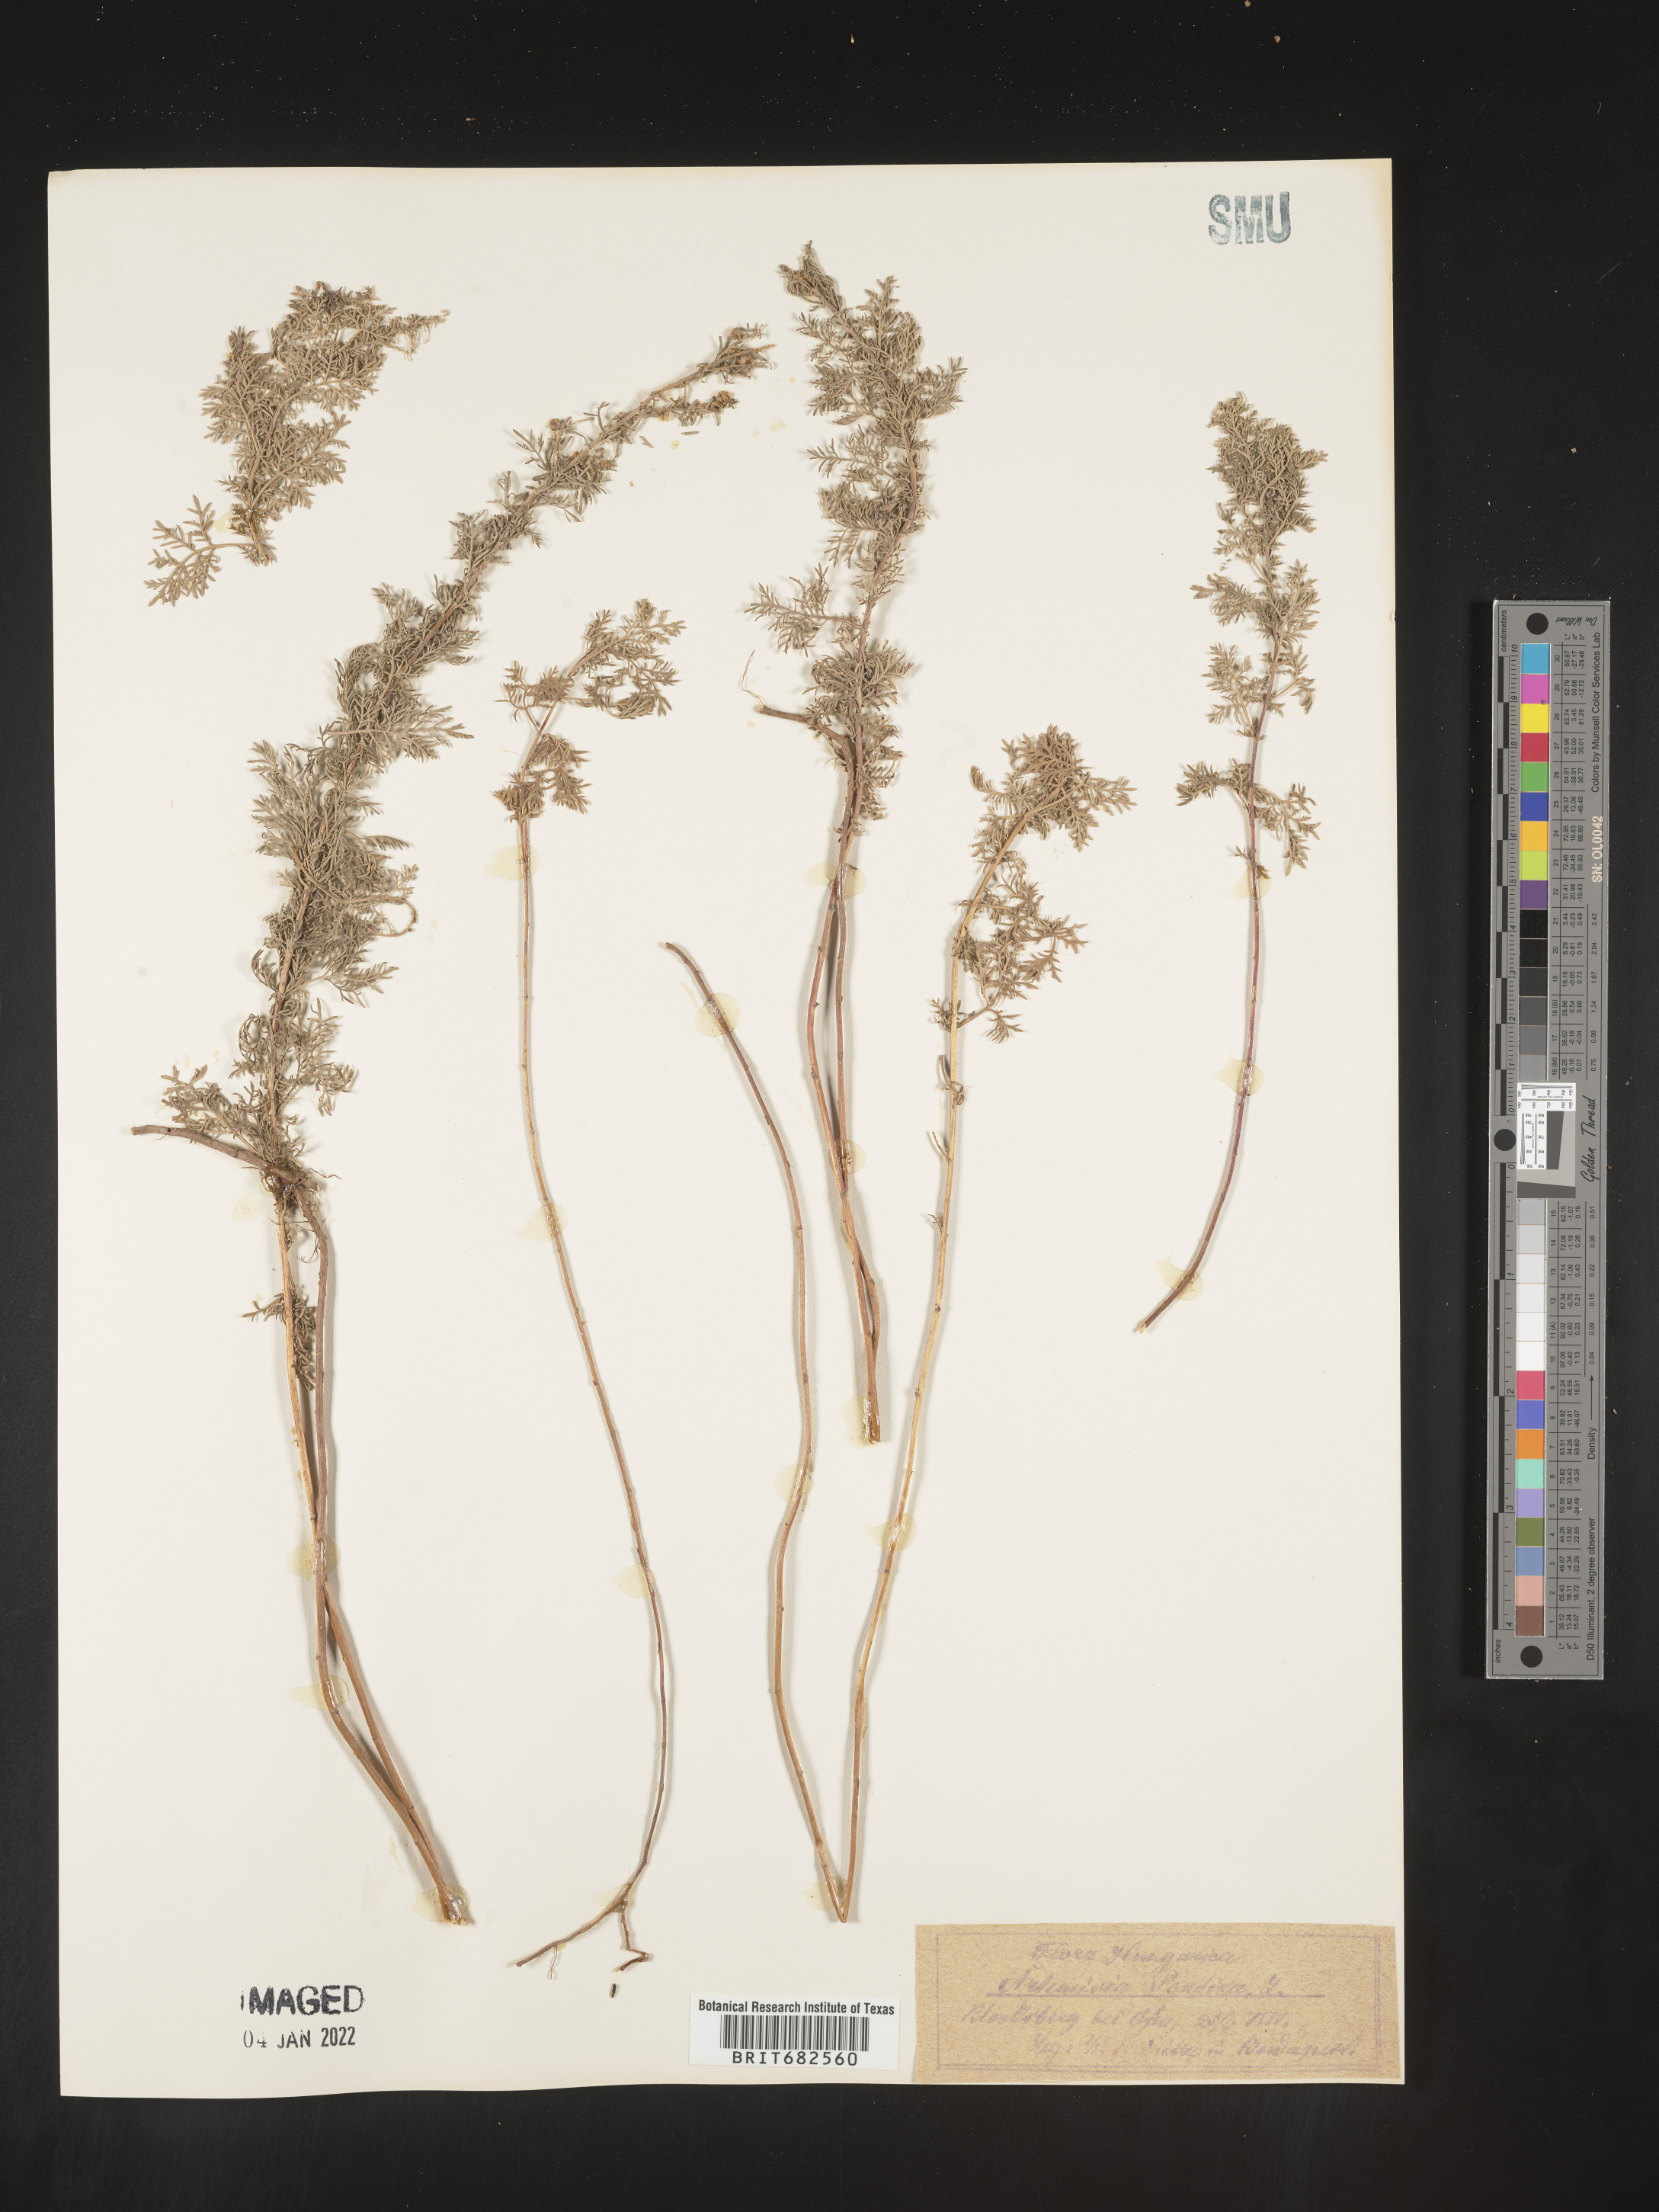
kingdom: Plantae
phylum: Tracheophyta
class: Magnoliopsida
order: Asterales
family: Asteraceae
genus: Artemisia
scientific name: Artemisia
